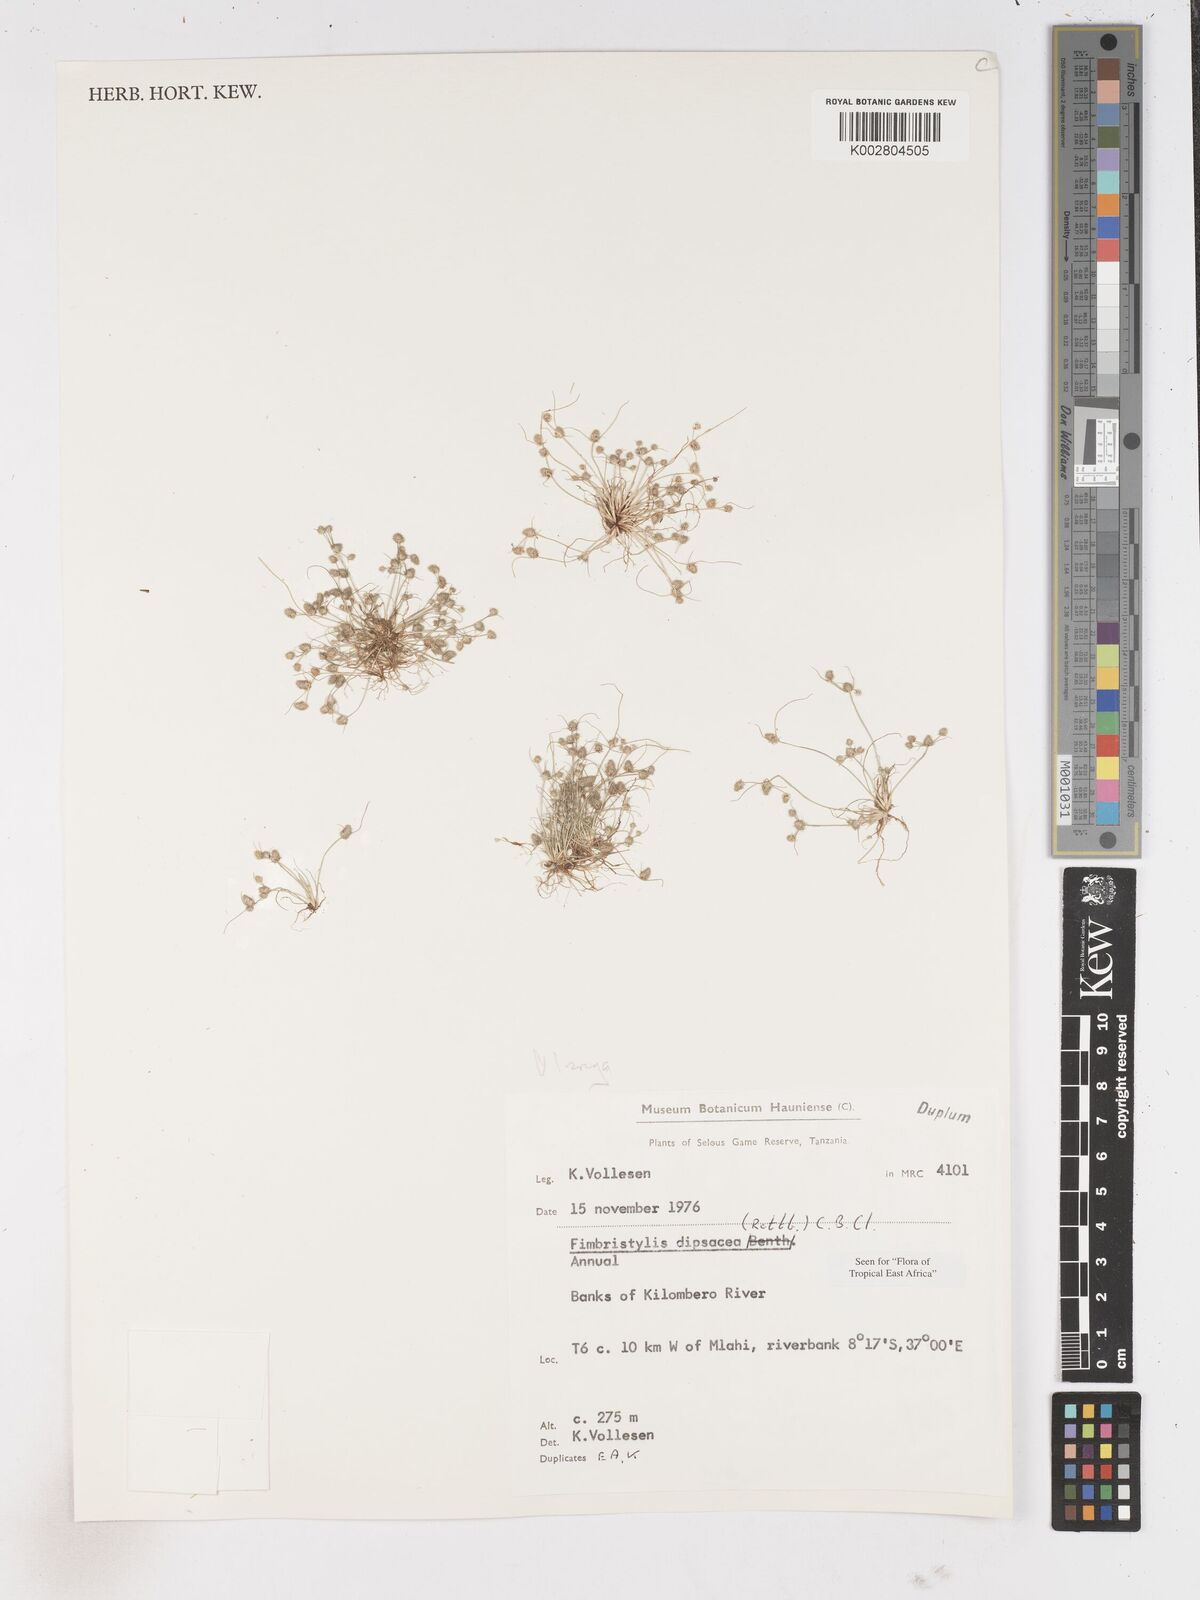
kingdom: Plantae
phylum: Tracheophyta
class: Liliopsida
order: Poales
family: Cyperaceae
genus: Fimbristylis
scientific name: Fimbristylis dipsacea
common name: Harper's fimbristylis
